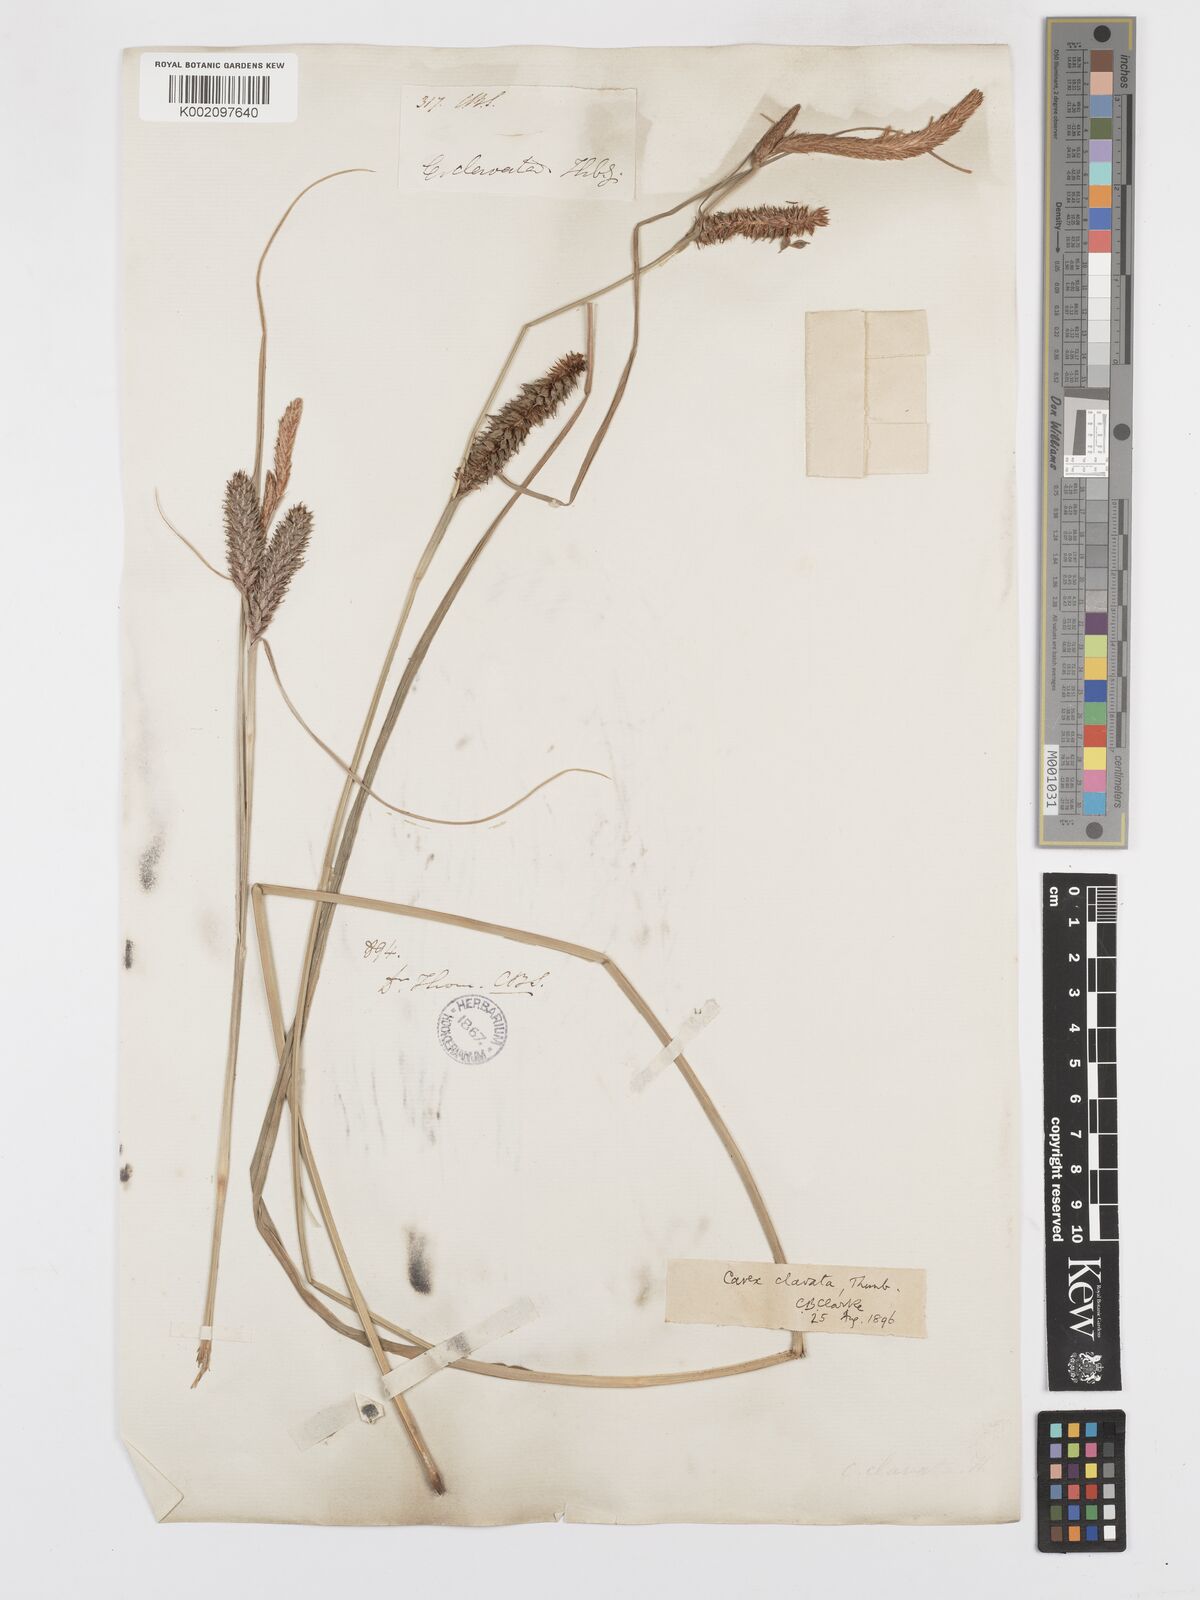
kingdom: Plantae
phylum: Tracheophyta
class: Liliopsida
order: Poales
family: Cyperaceae
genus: Carex
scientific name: Carex clavata
